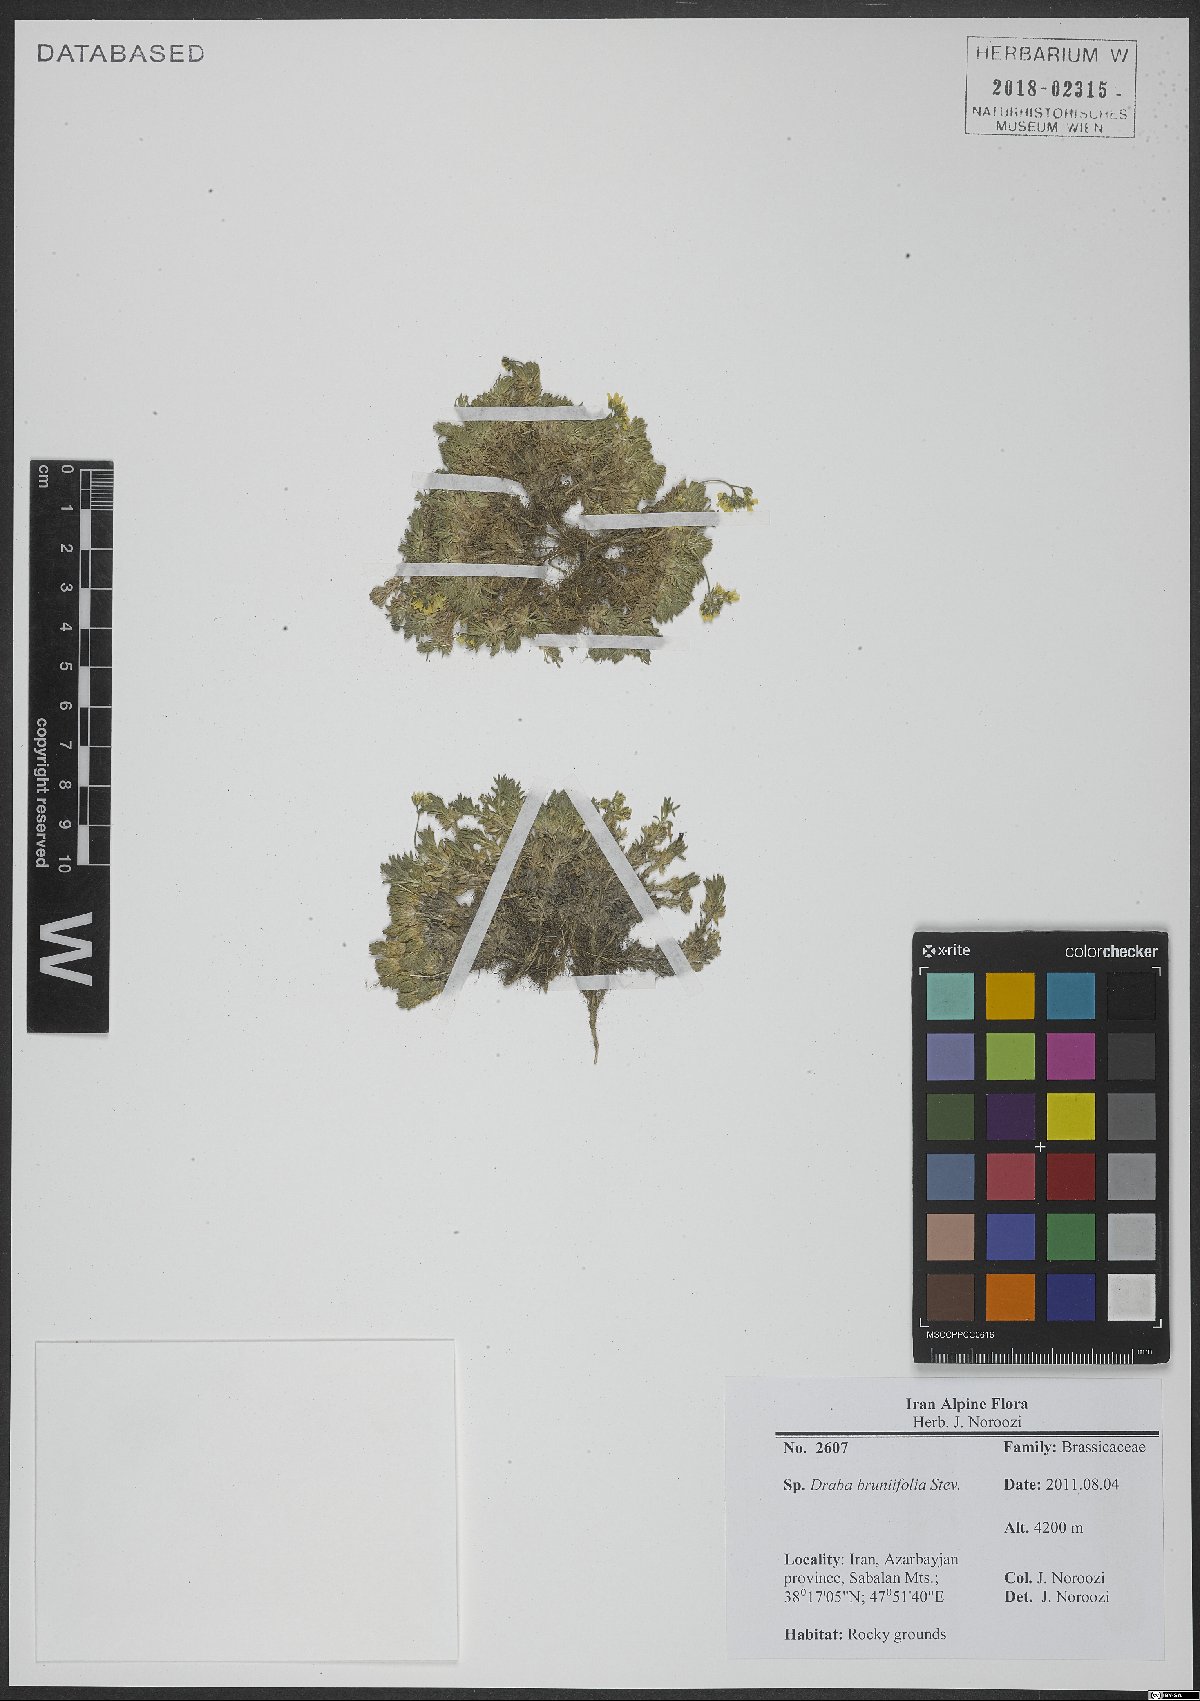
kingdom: Plantae
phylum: Tracheophyta
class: Magnoliopsida
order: Brassicales
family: Brassicaceae
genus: Draba
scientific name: Draba bruniifolia
